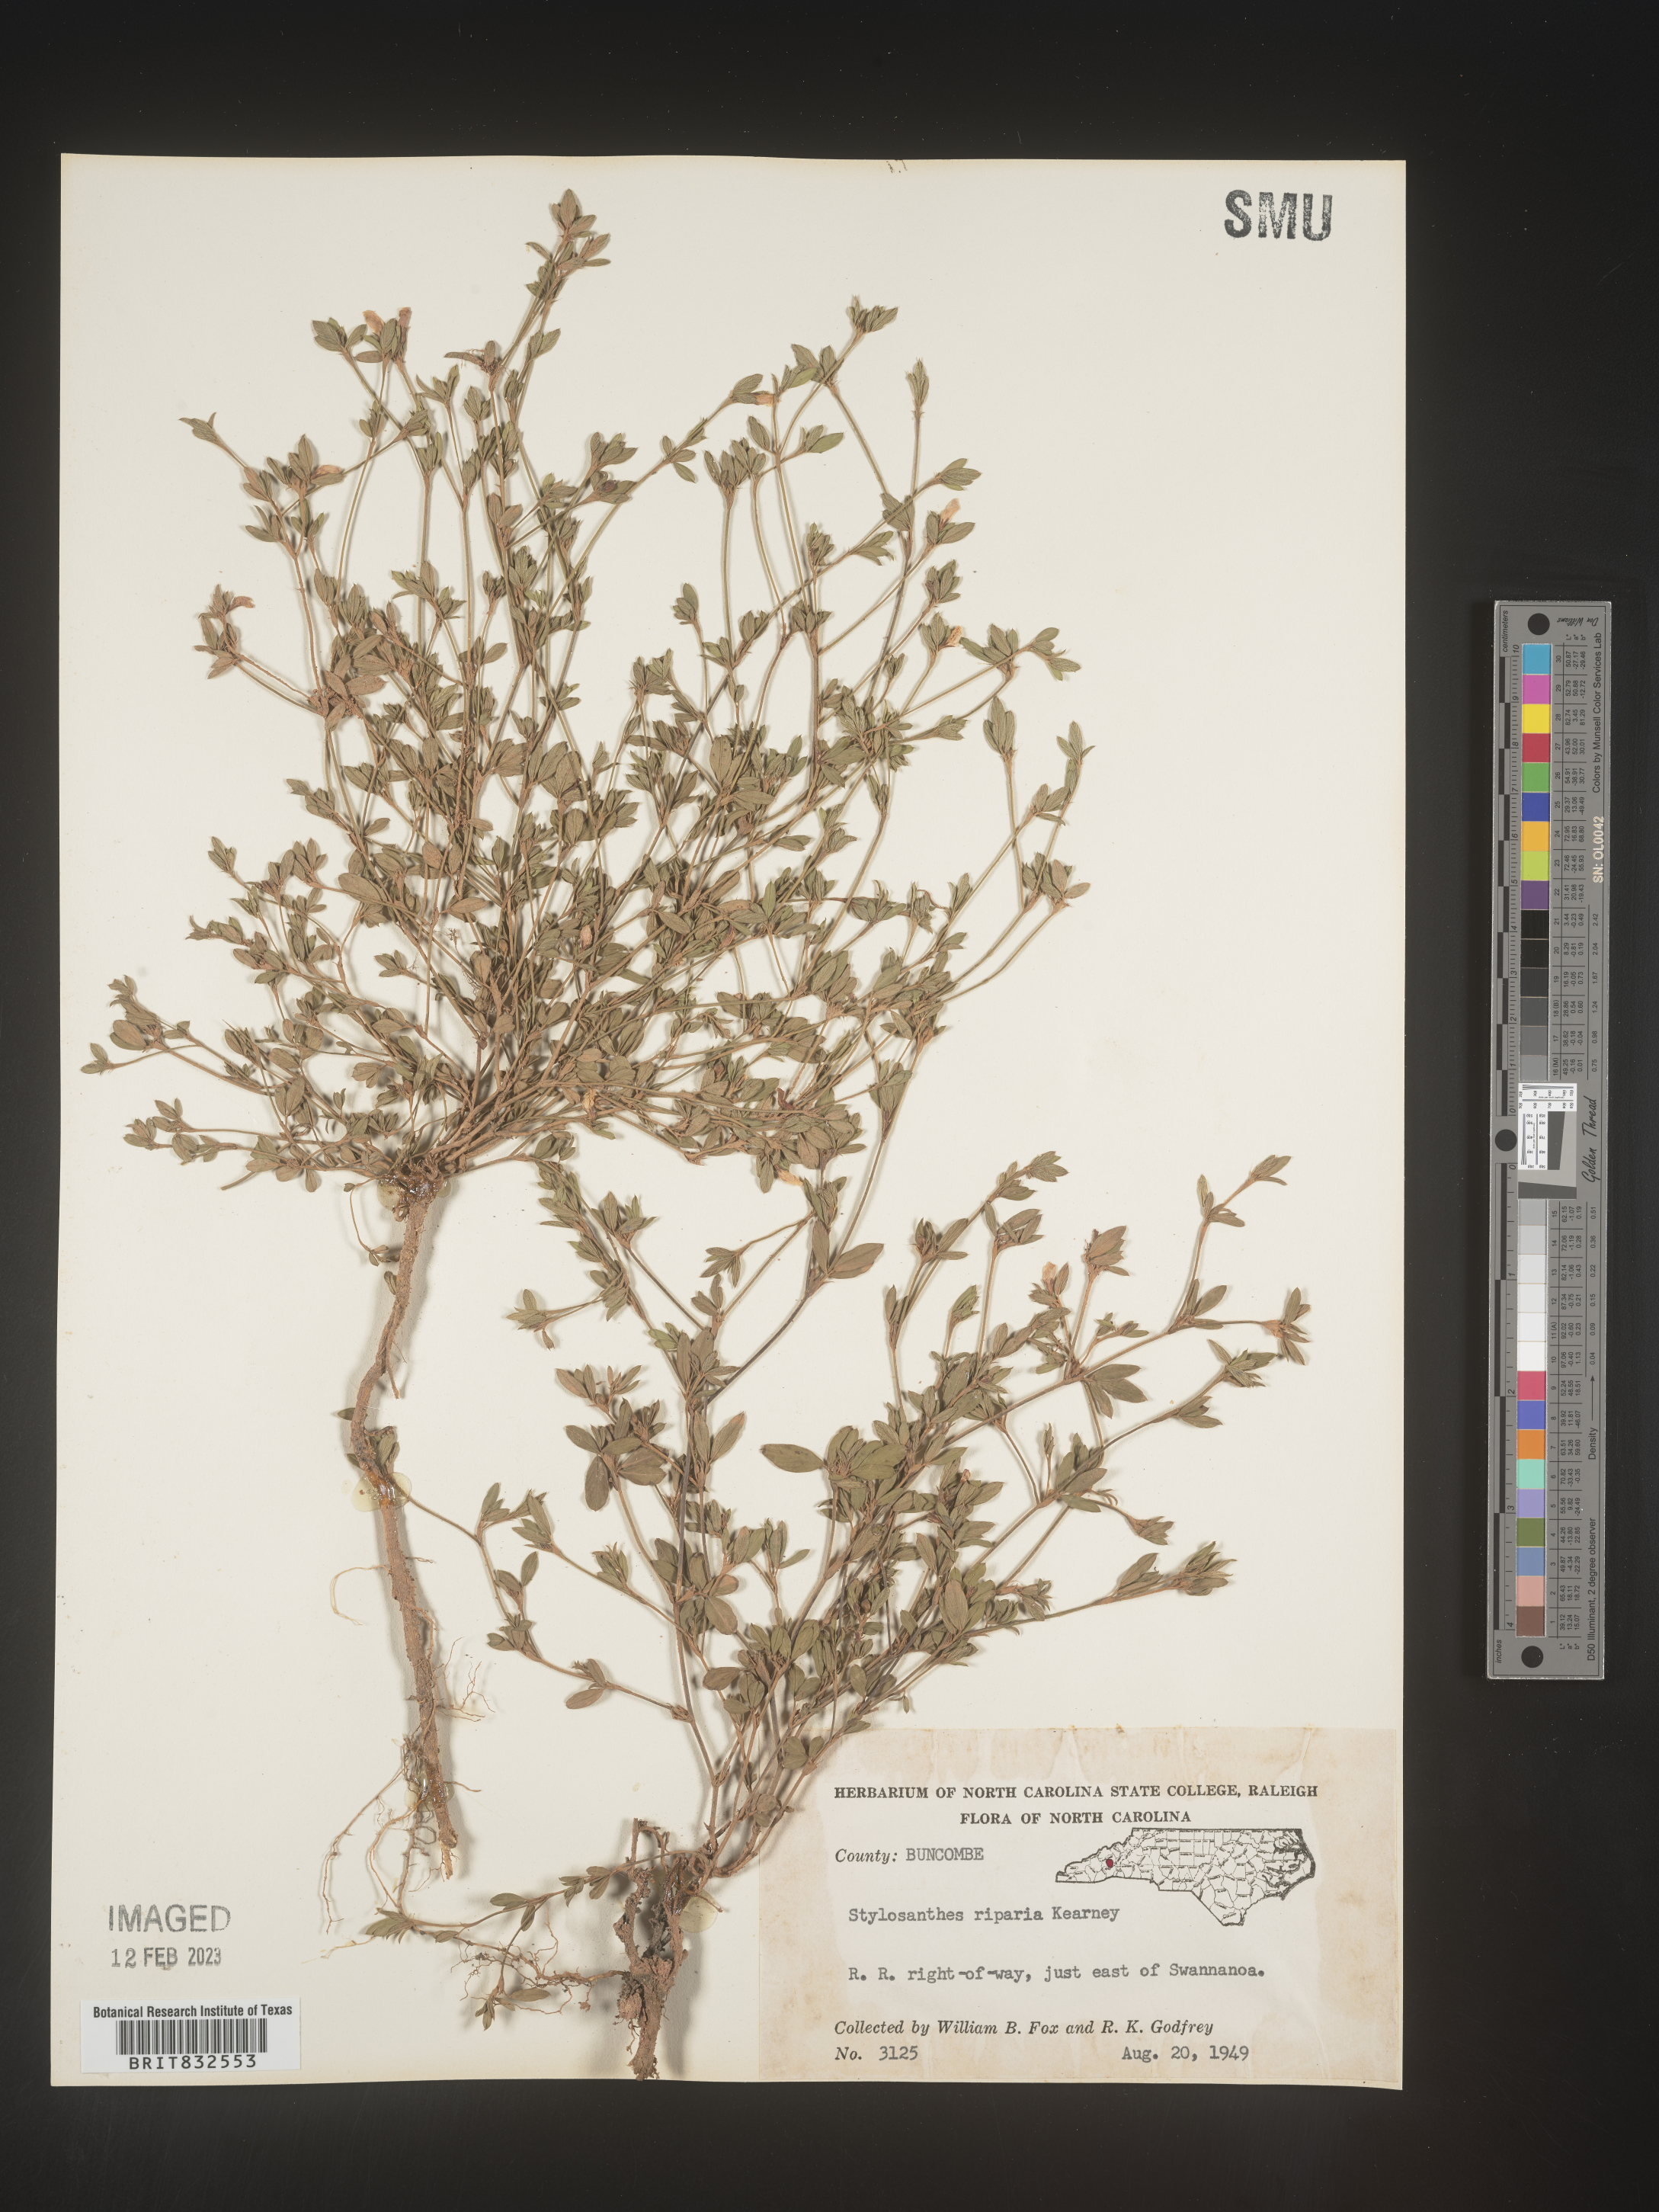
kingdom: Plantae
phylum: Tracheophyta
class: Magnoliopsida
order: Fabales
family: Fabaceae
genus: Stylosanthes
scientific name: Stylosanthes
